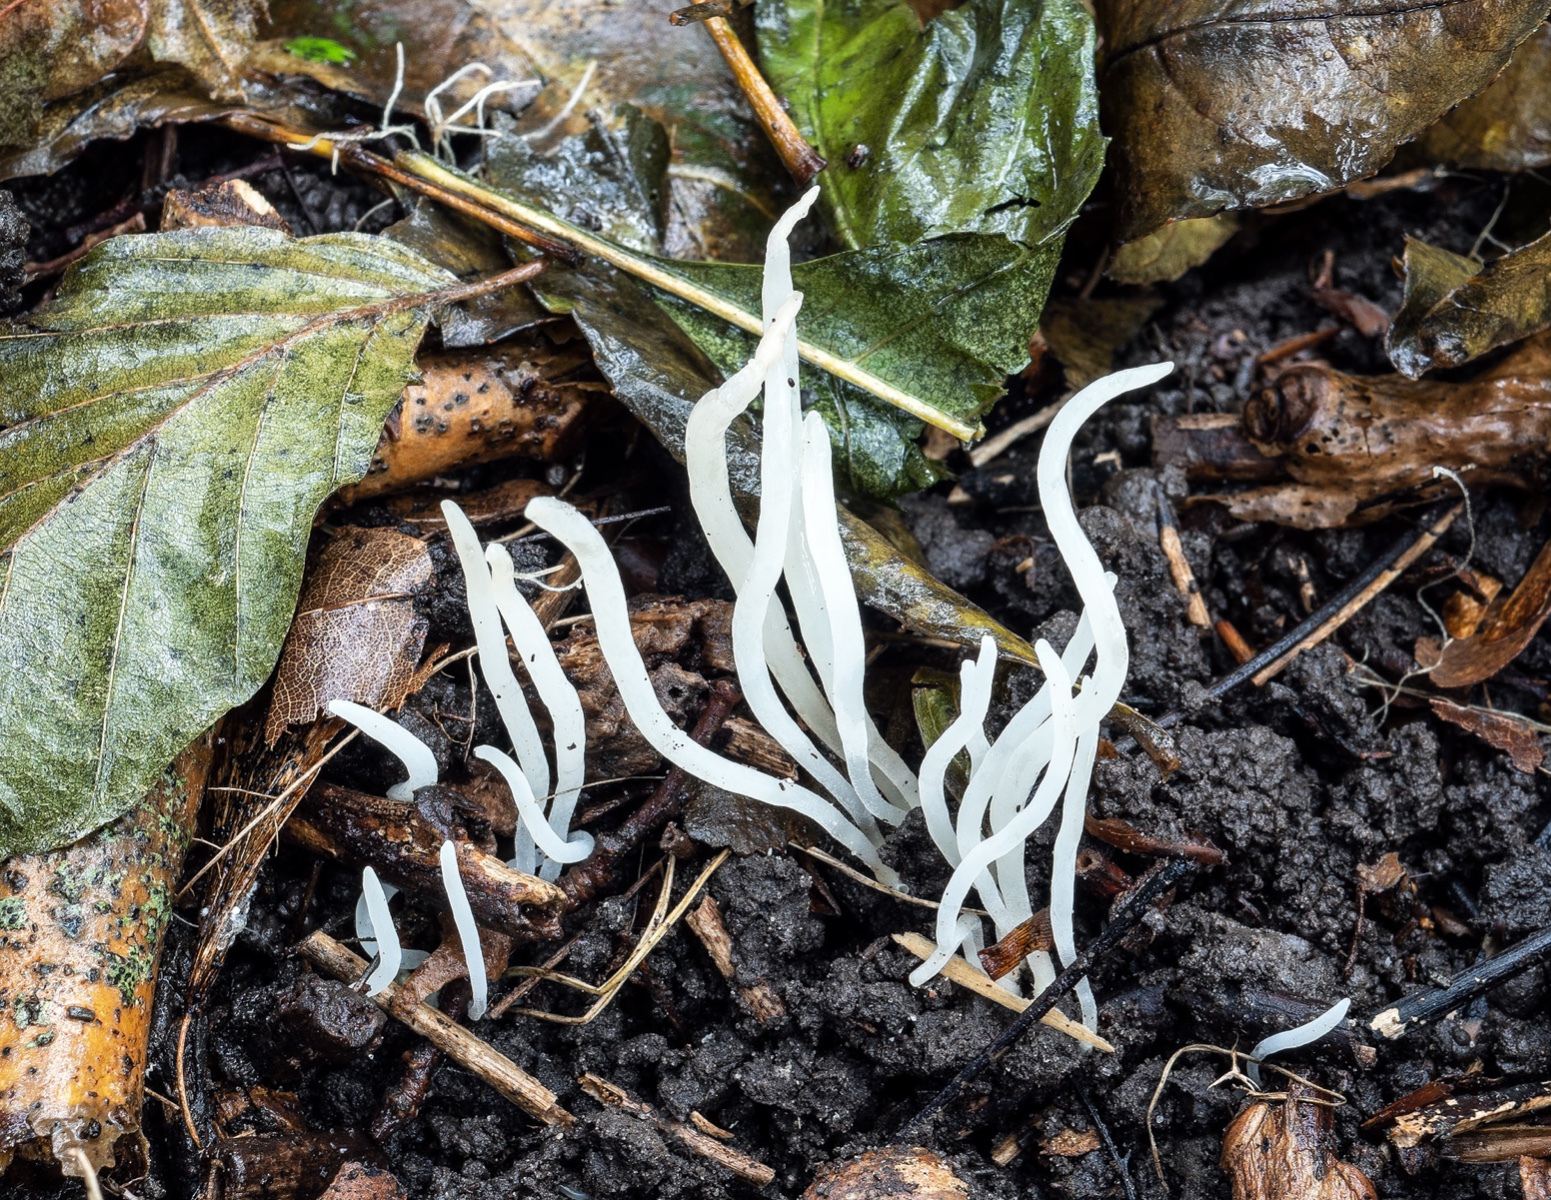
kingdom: Fungi
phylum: Basidiomycota
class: Agaricomycetes
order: Agaricales
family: Clavariaceae
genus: Clavaria
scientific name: Clavaria falcata
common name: hvid køllesvamp
